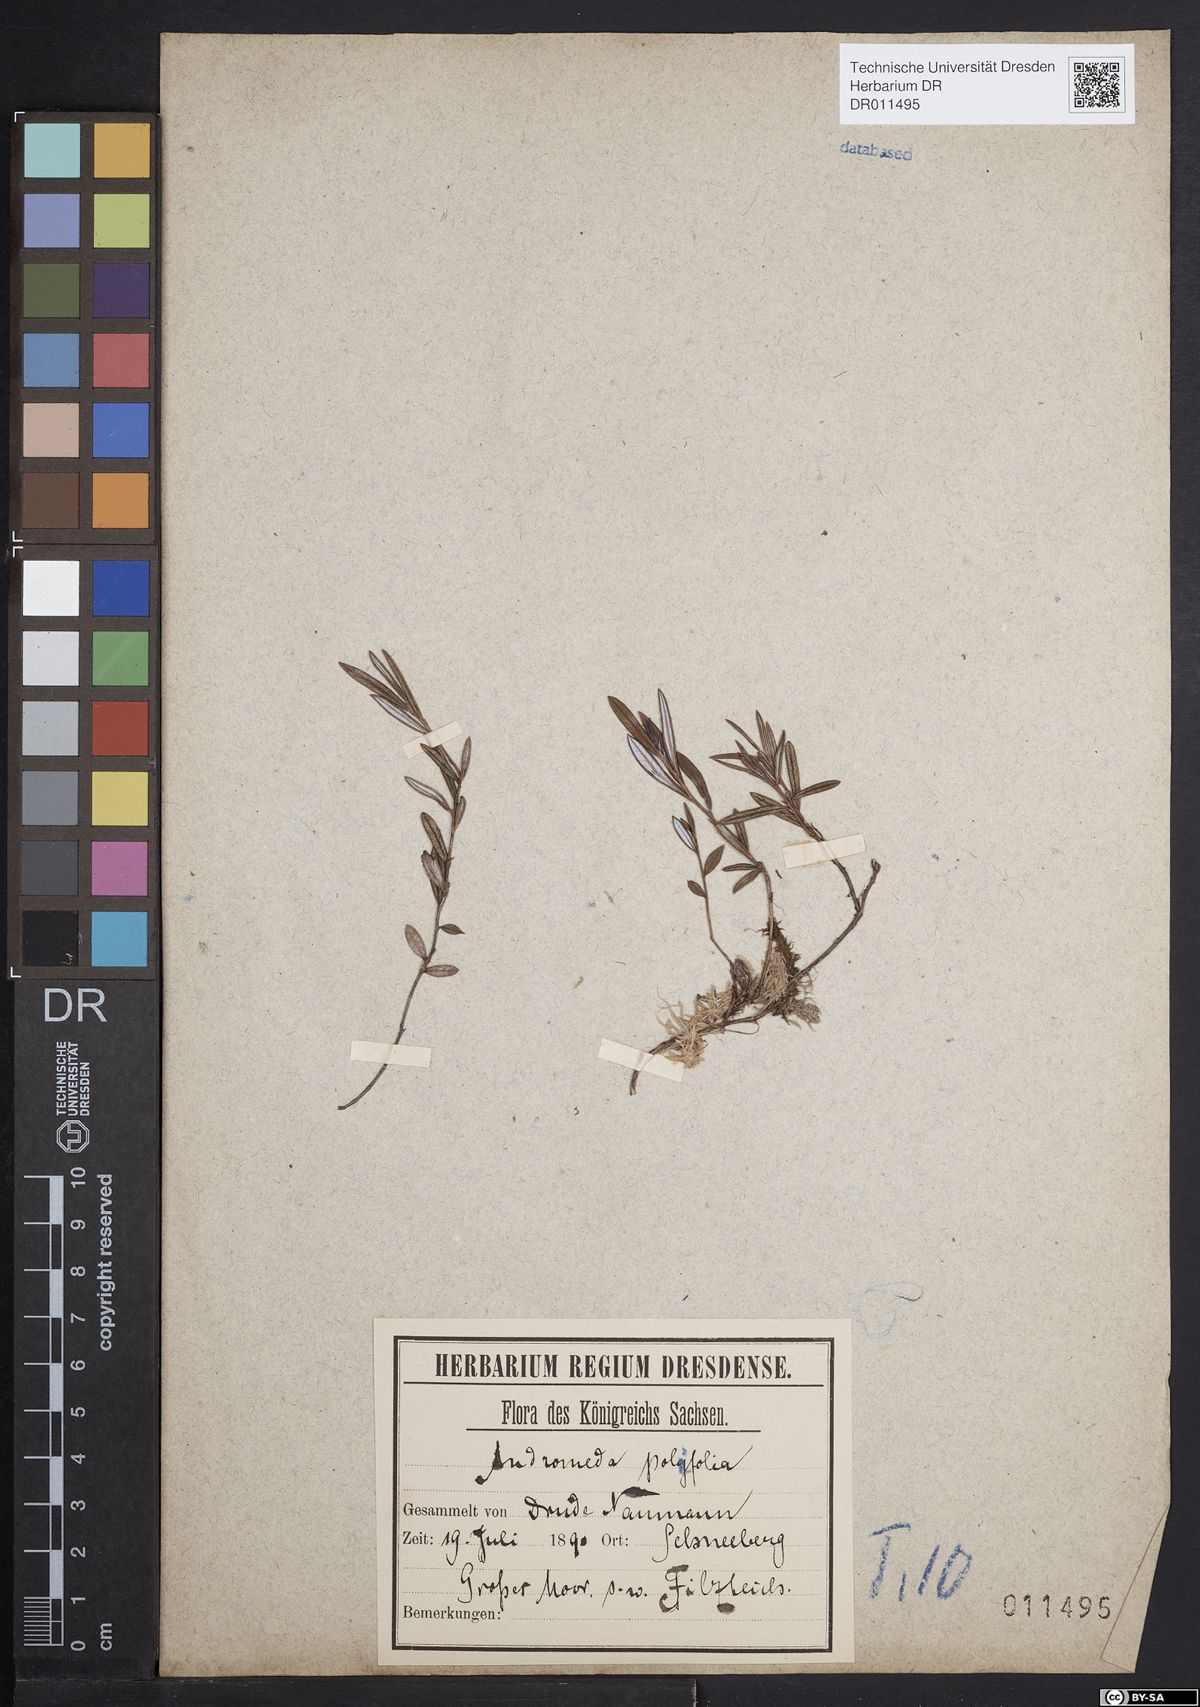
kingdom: Plantae
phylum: Tracheophyta
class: Magnoliopsida
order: Ericales
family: Ericaceae
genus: Andromeda
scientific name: Andromeda polifolia
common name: Bog-rosemary
